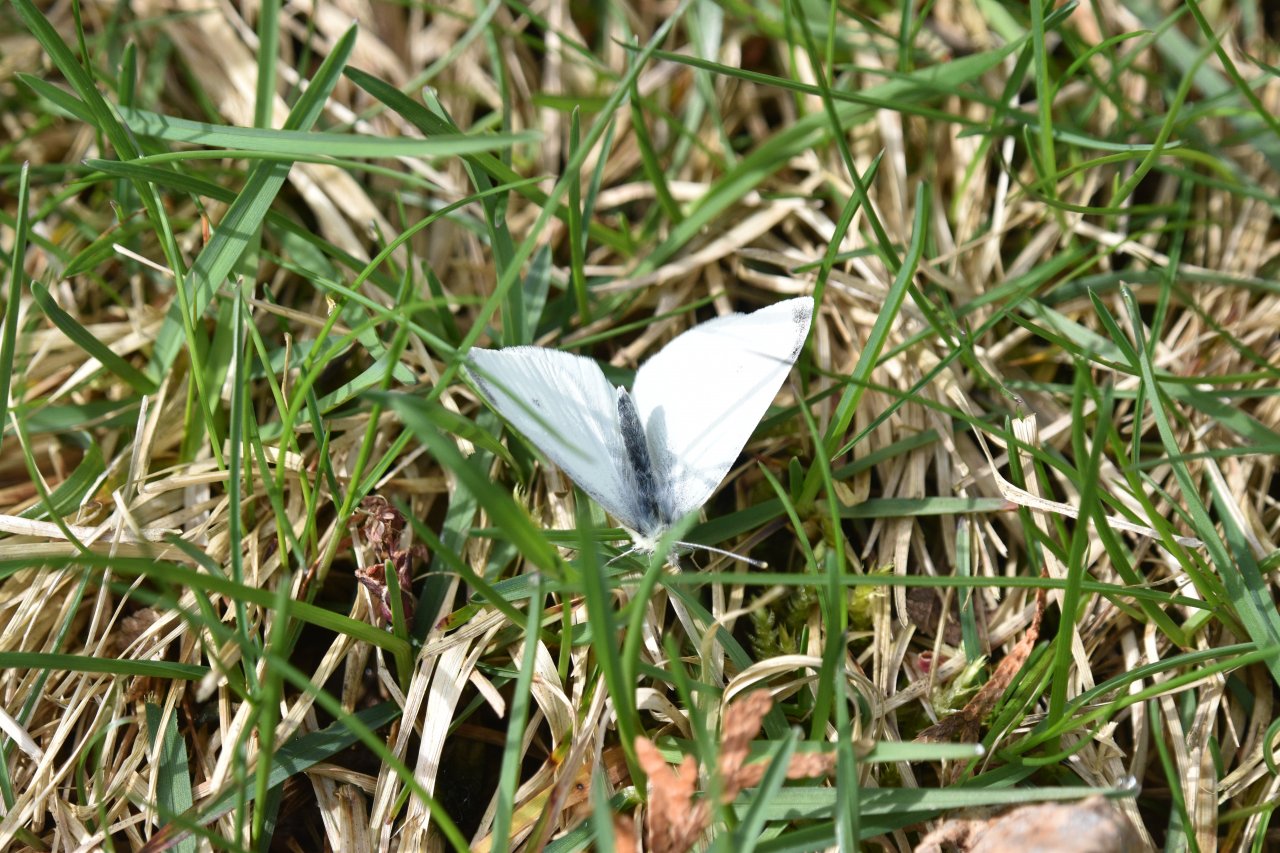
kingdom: Animalia
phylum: Arthropoda
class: Insecta
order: Lepidoptera
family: Pieridae
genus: Pieris
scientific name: Pieris rapae
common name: Cabbage White
